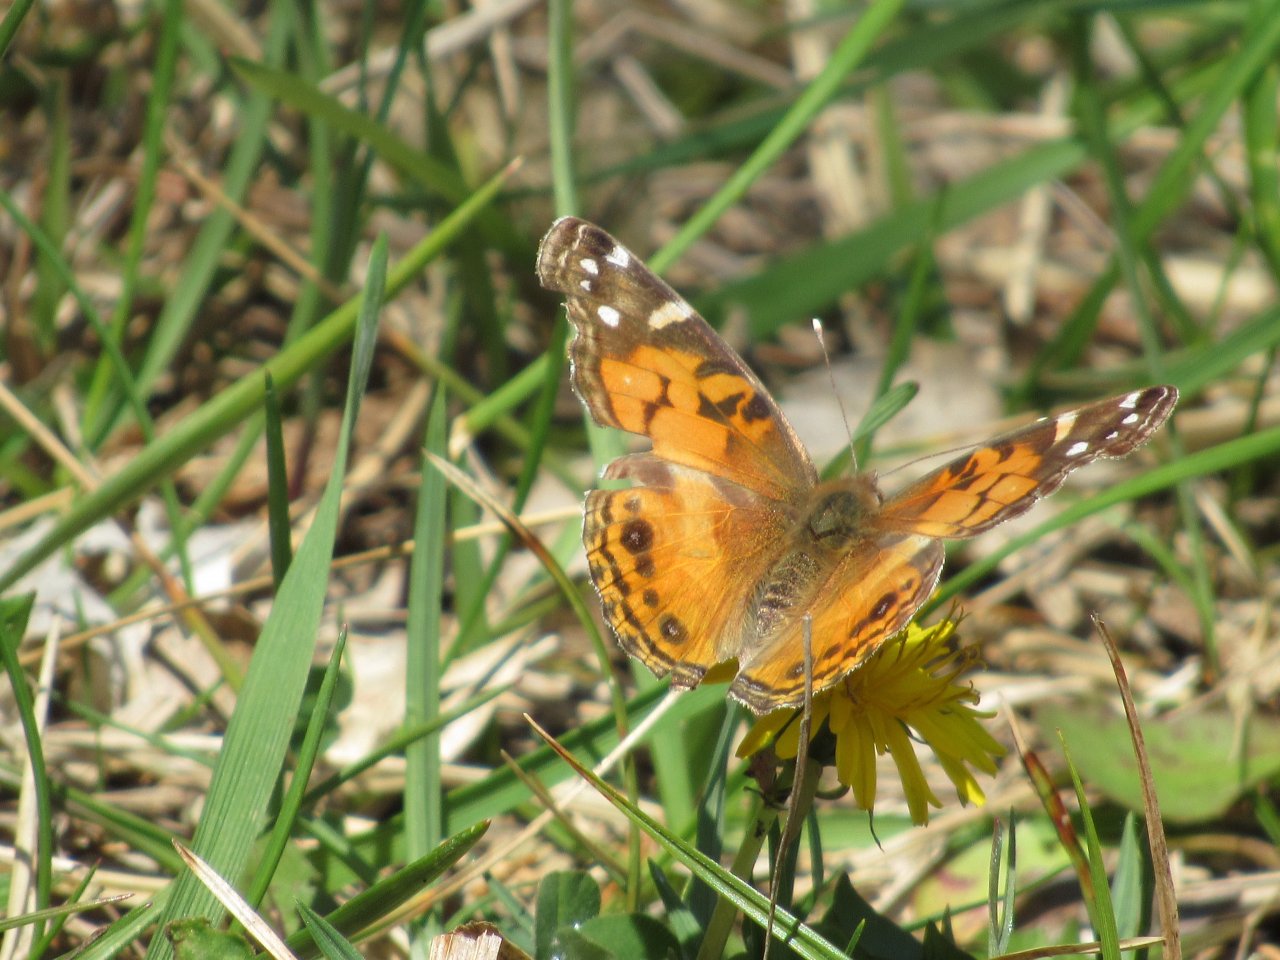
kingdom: Animalia
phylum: Arthropoda
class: Insecta
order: Lepidoptera
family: Nymphalidae
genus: Vanessa
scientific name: Vanessa virginiensis
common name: American Lady
